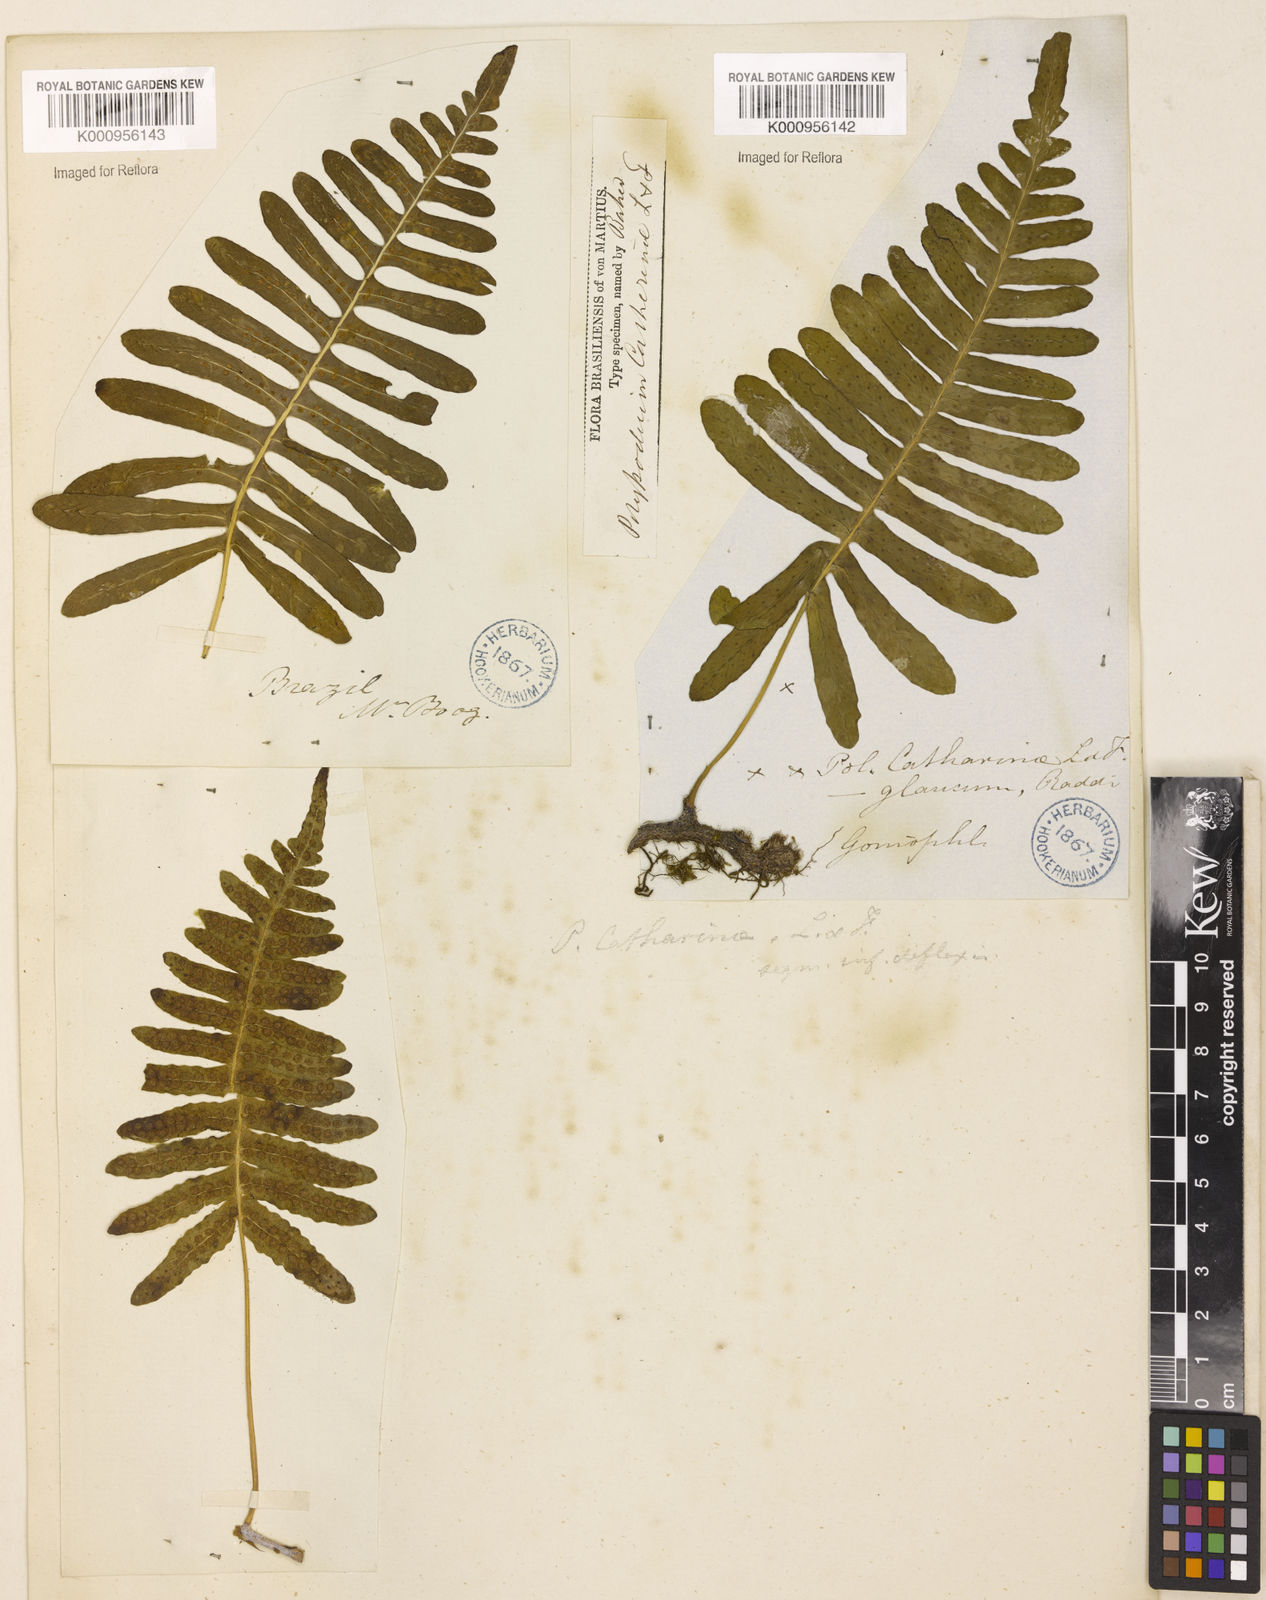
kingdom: Plantae
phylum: Tracheophyta
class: Polypodiopsida
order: Polypodiales
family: Polypodiaceae
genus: Serpocaulon
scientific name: Serpocaulon catharinae
